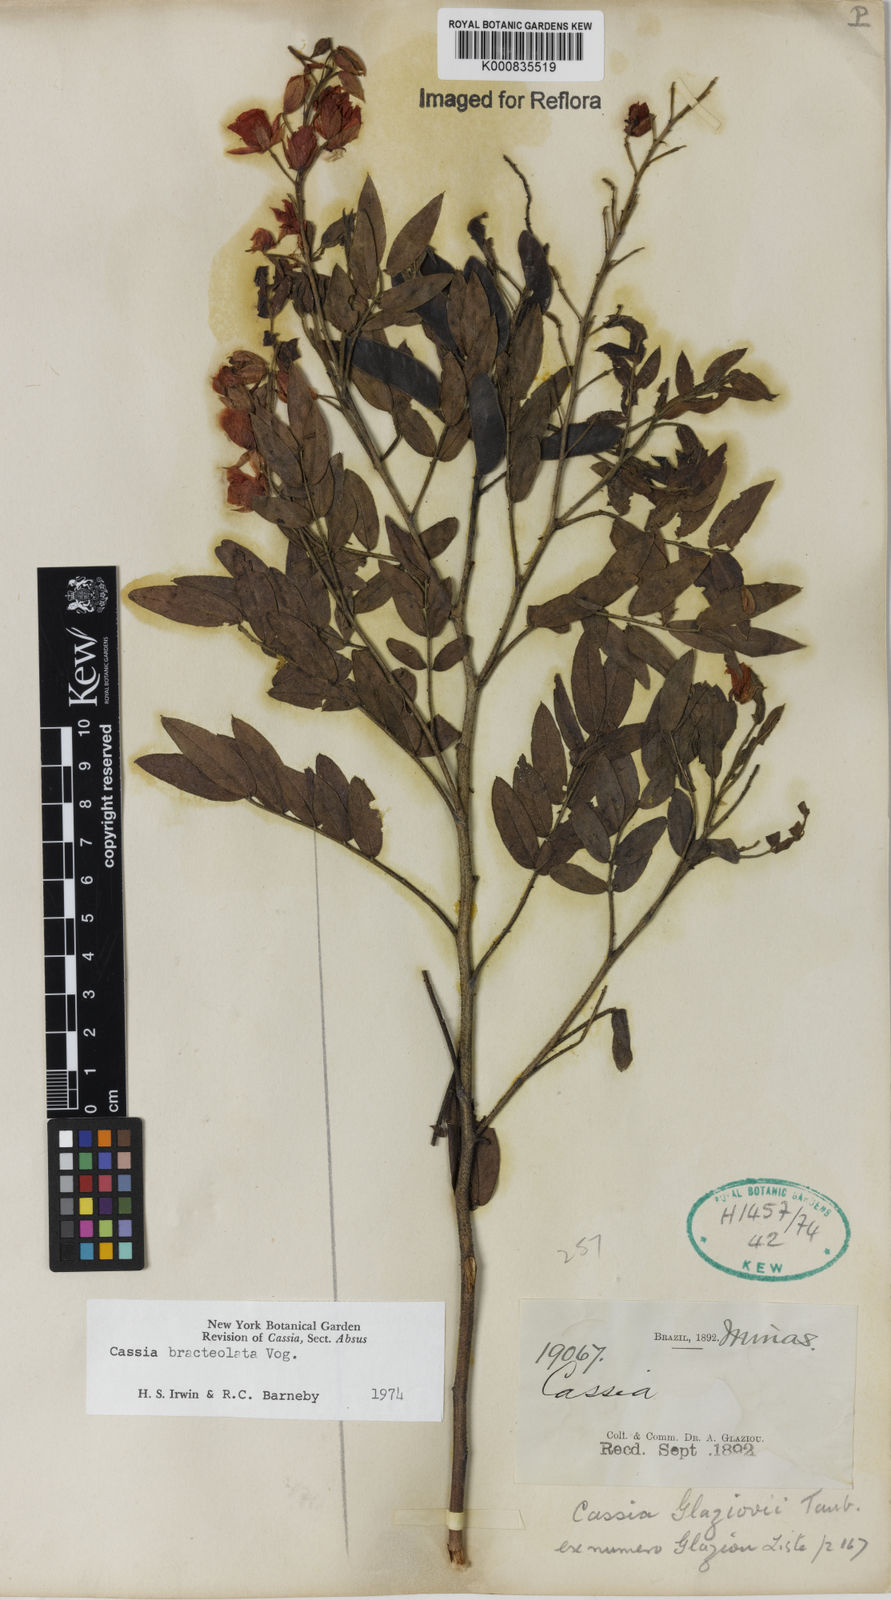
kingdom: Plantae
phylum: Tracheophyta
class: Magnoliopsida
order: Fabales
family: Fabaceae
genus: Chamaecrista
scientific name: Chamaecrista bracteolata
